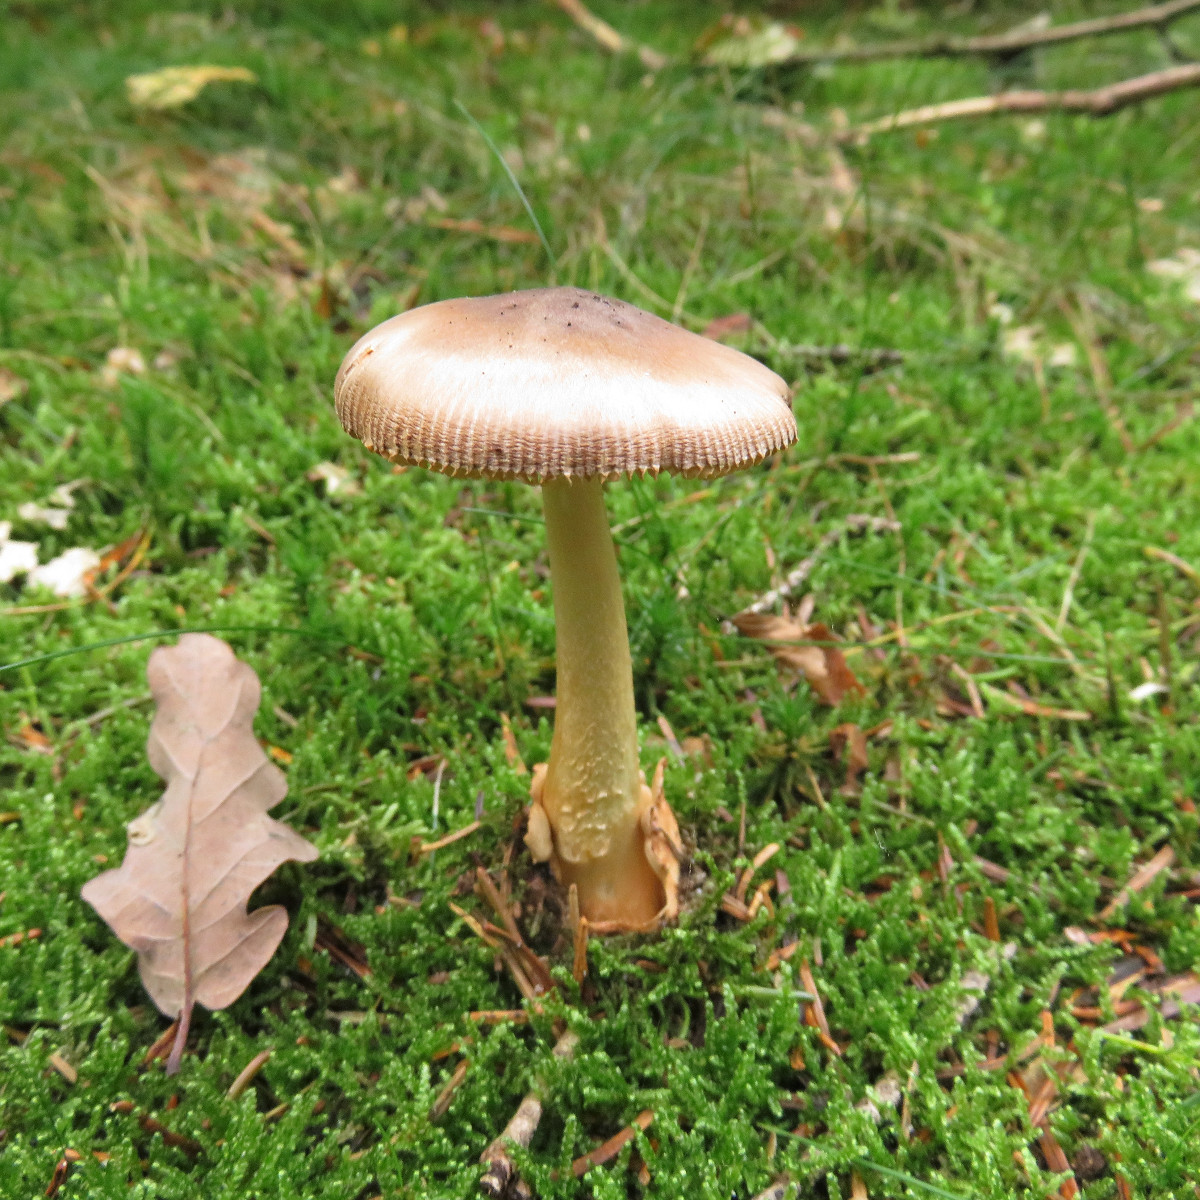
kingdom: Fungi
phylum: Basidiomycota
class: Agaricomycetes
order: Agaricales
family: Amanitaceae
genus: Amanita
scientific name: Amanita fulva
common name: brun kam-fluesvamp
